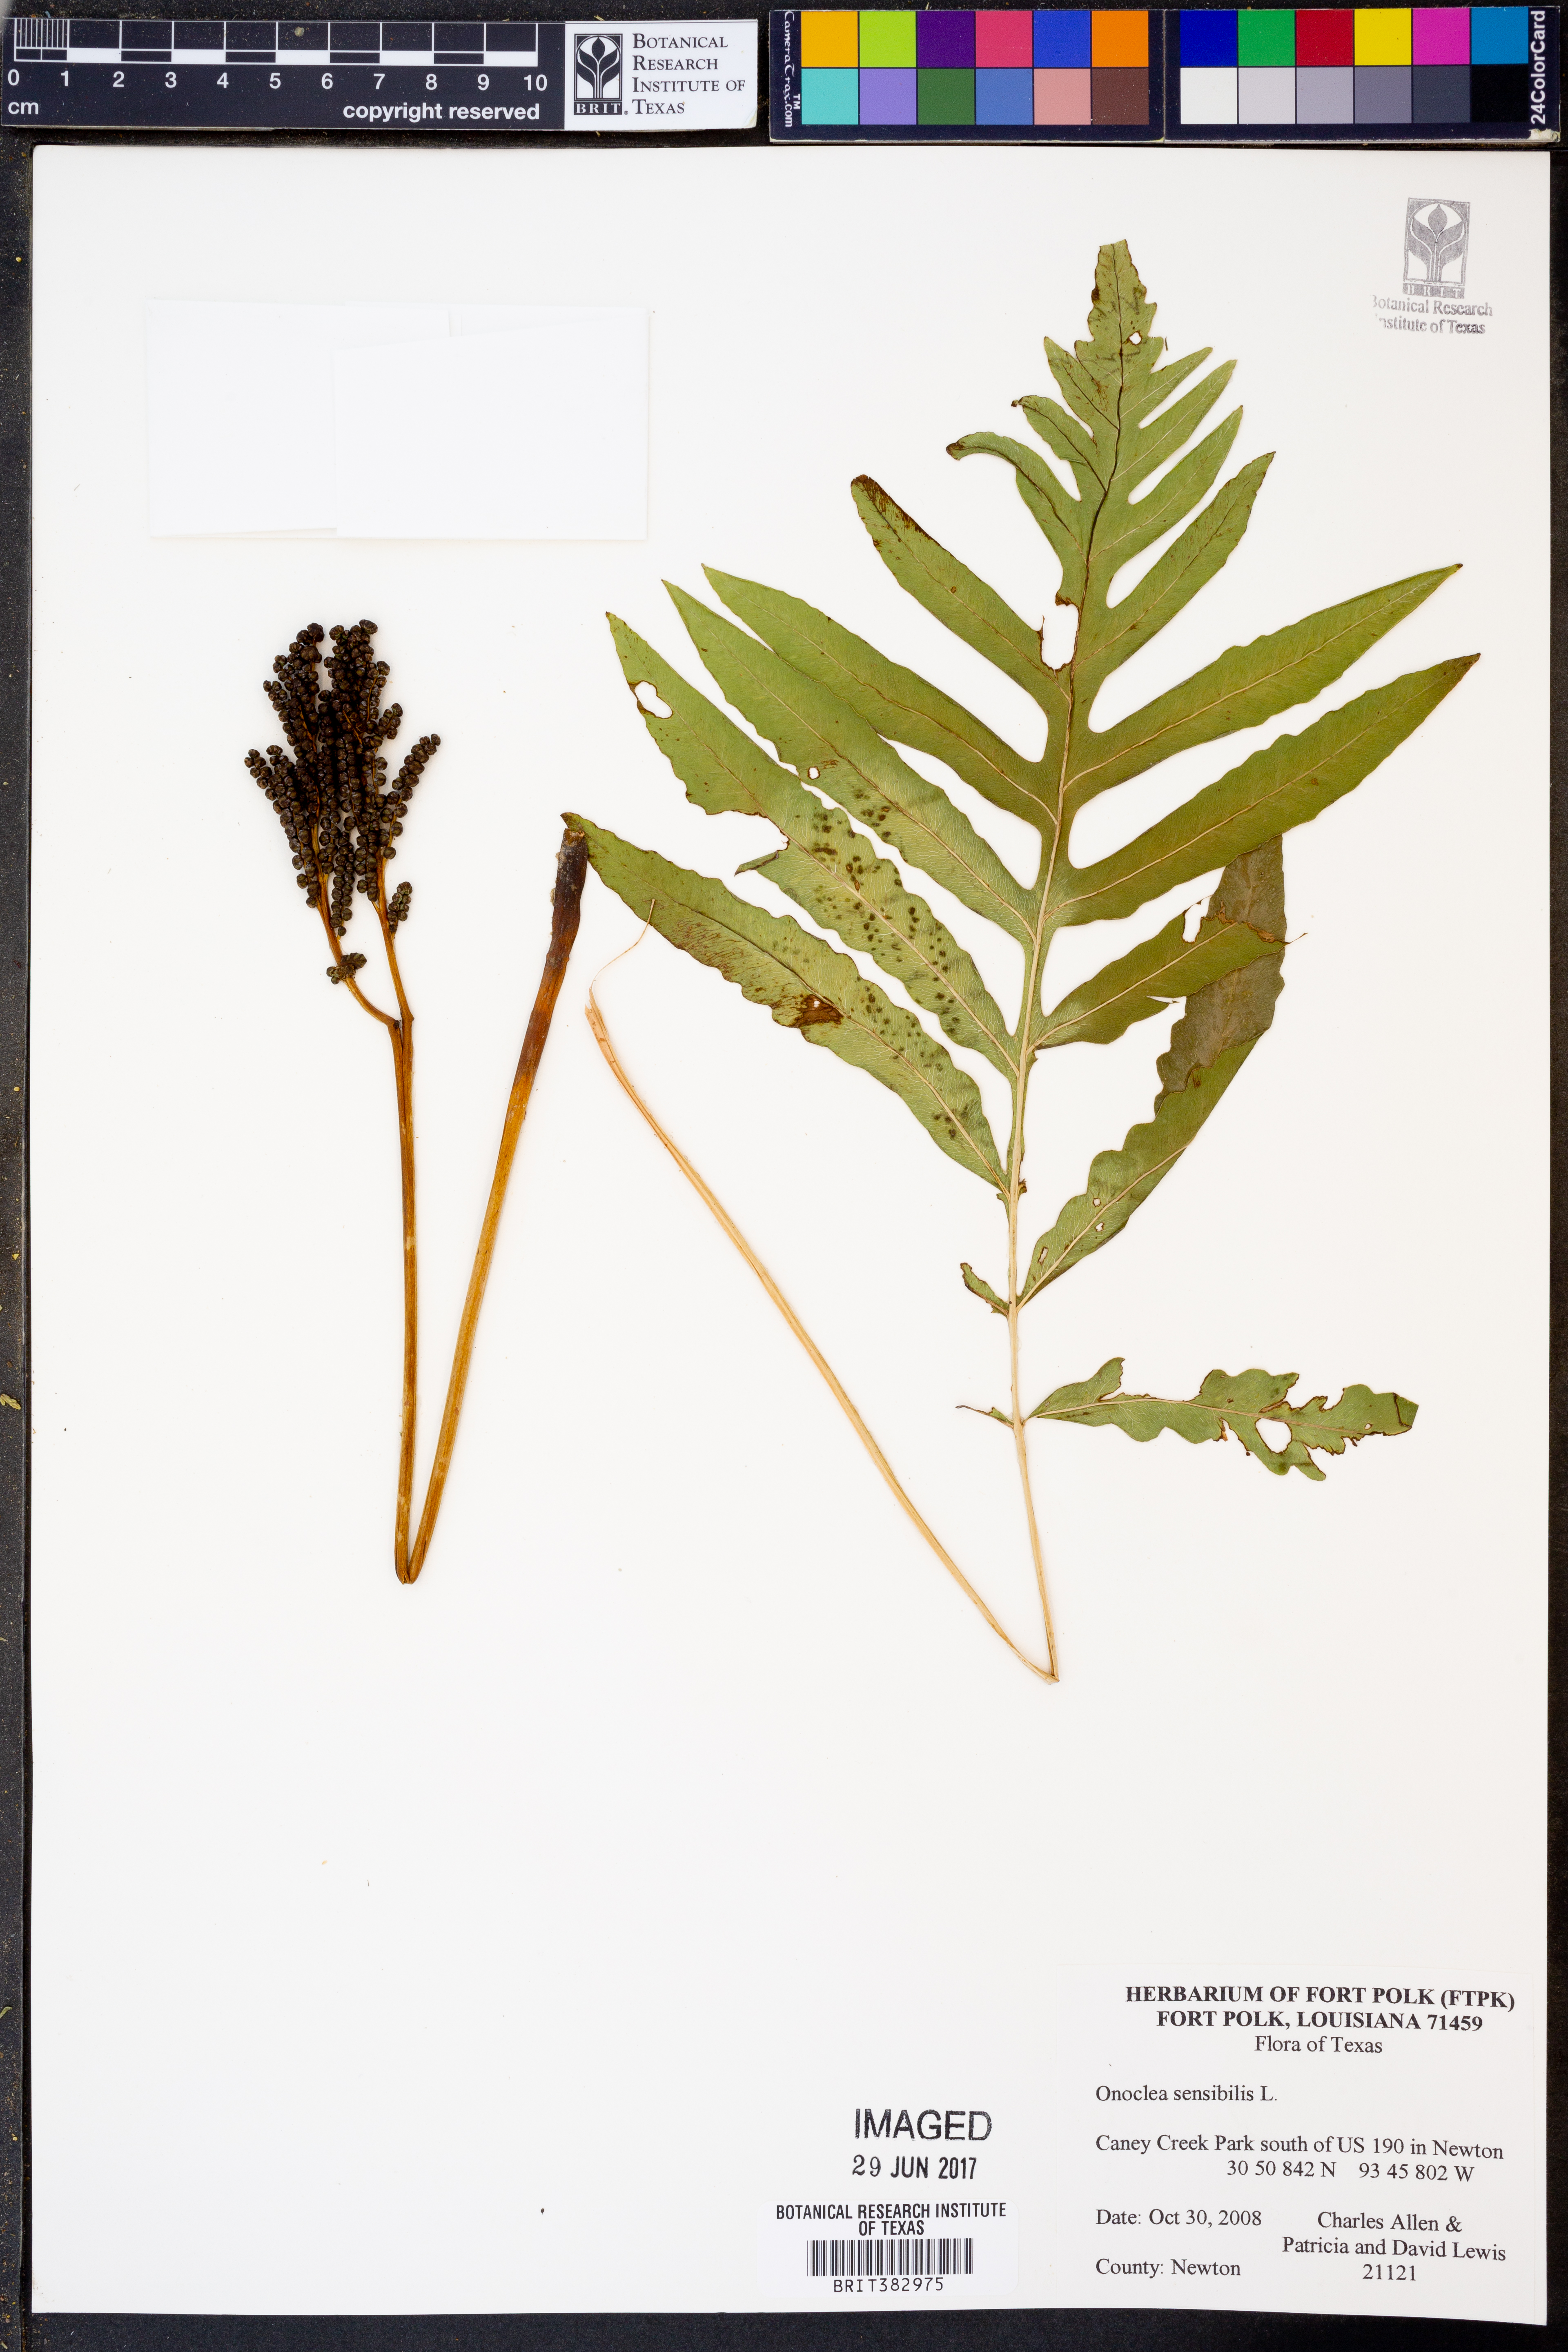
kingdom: Plantae
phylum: Tracheophyta
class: Polypodiopsida
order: Polypodiales
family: Onocleaceae
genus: Onoclea
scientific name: Onoclea sensibilis
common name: Sensitive fern
